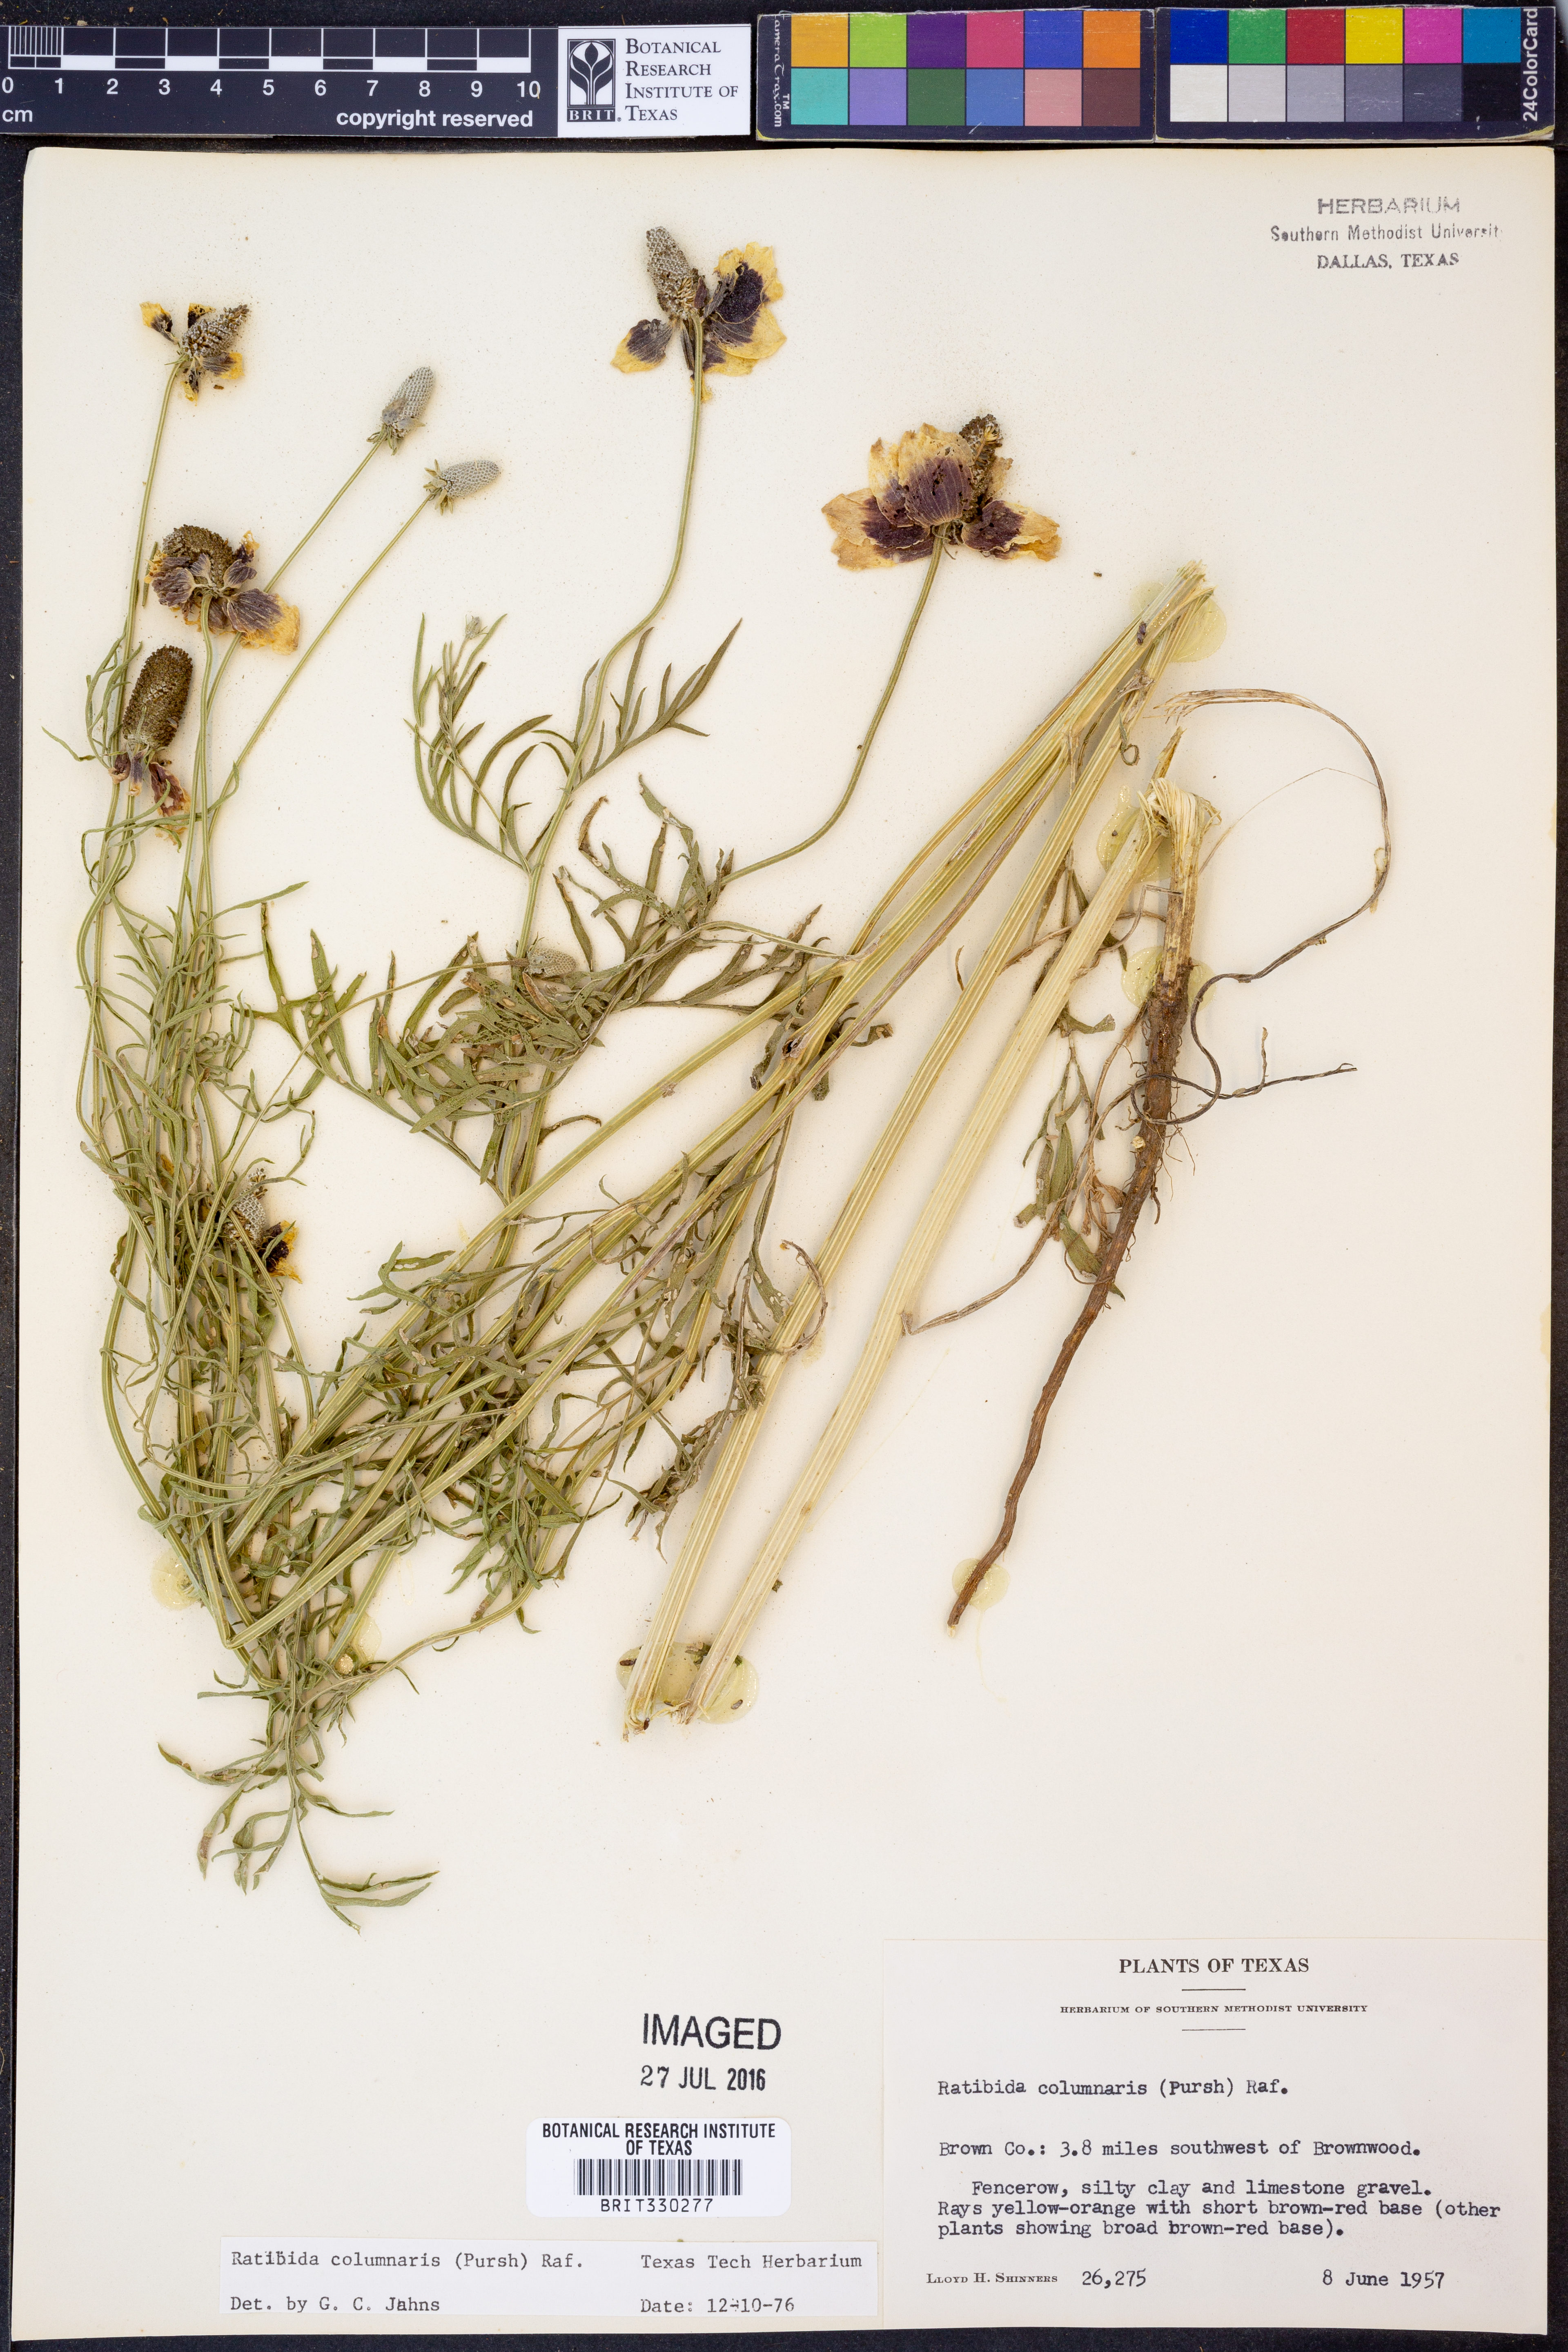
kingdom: Plantae
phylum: Tracheophyta
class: Magnoliopsida
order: Asterales
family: Asteraceae
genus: Ratibida
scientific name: Ratibida columnifera
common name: Prairie coneflower
